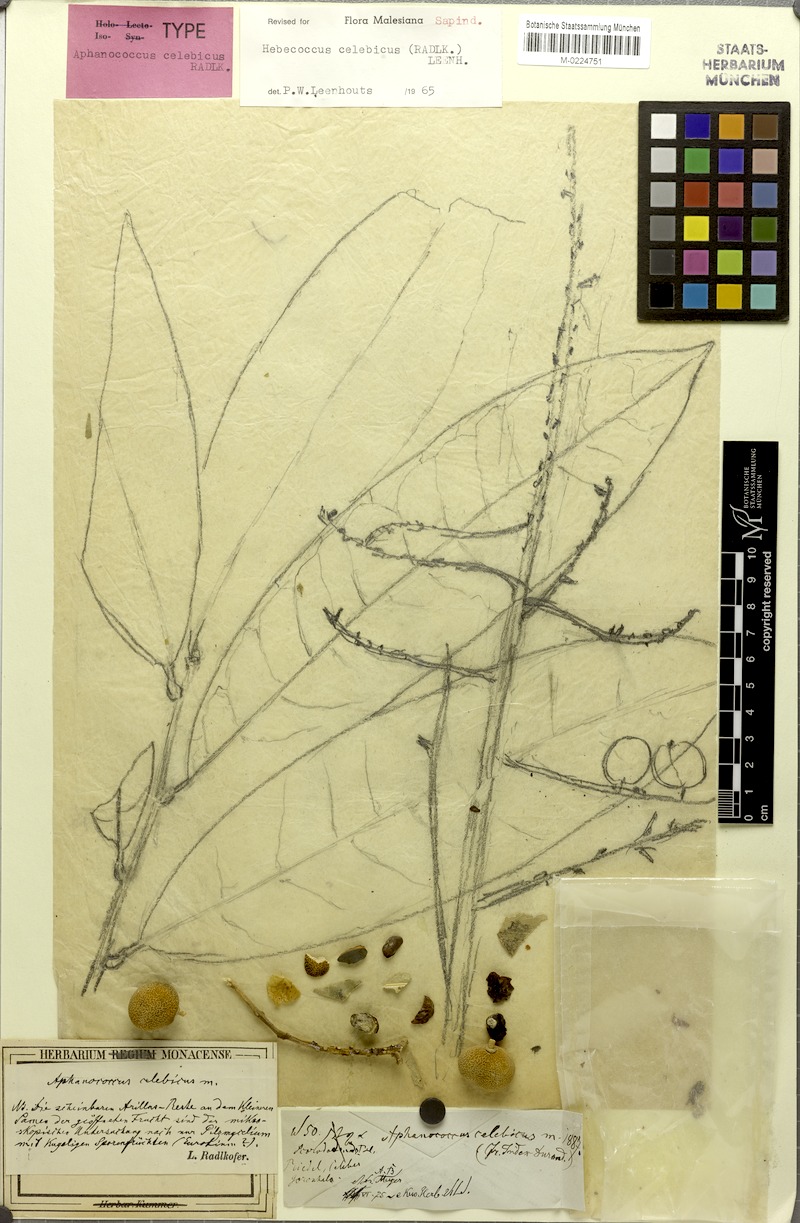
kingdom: Plantae
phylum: Tracheophyta
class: Magnoliopsida
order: Sapindales
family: Sapindaceae
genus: Lepisanthes
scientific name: Lepisanthes falcata
